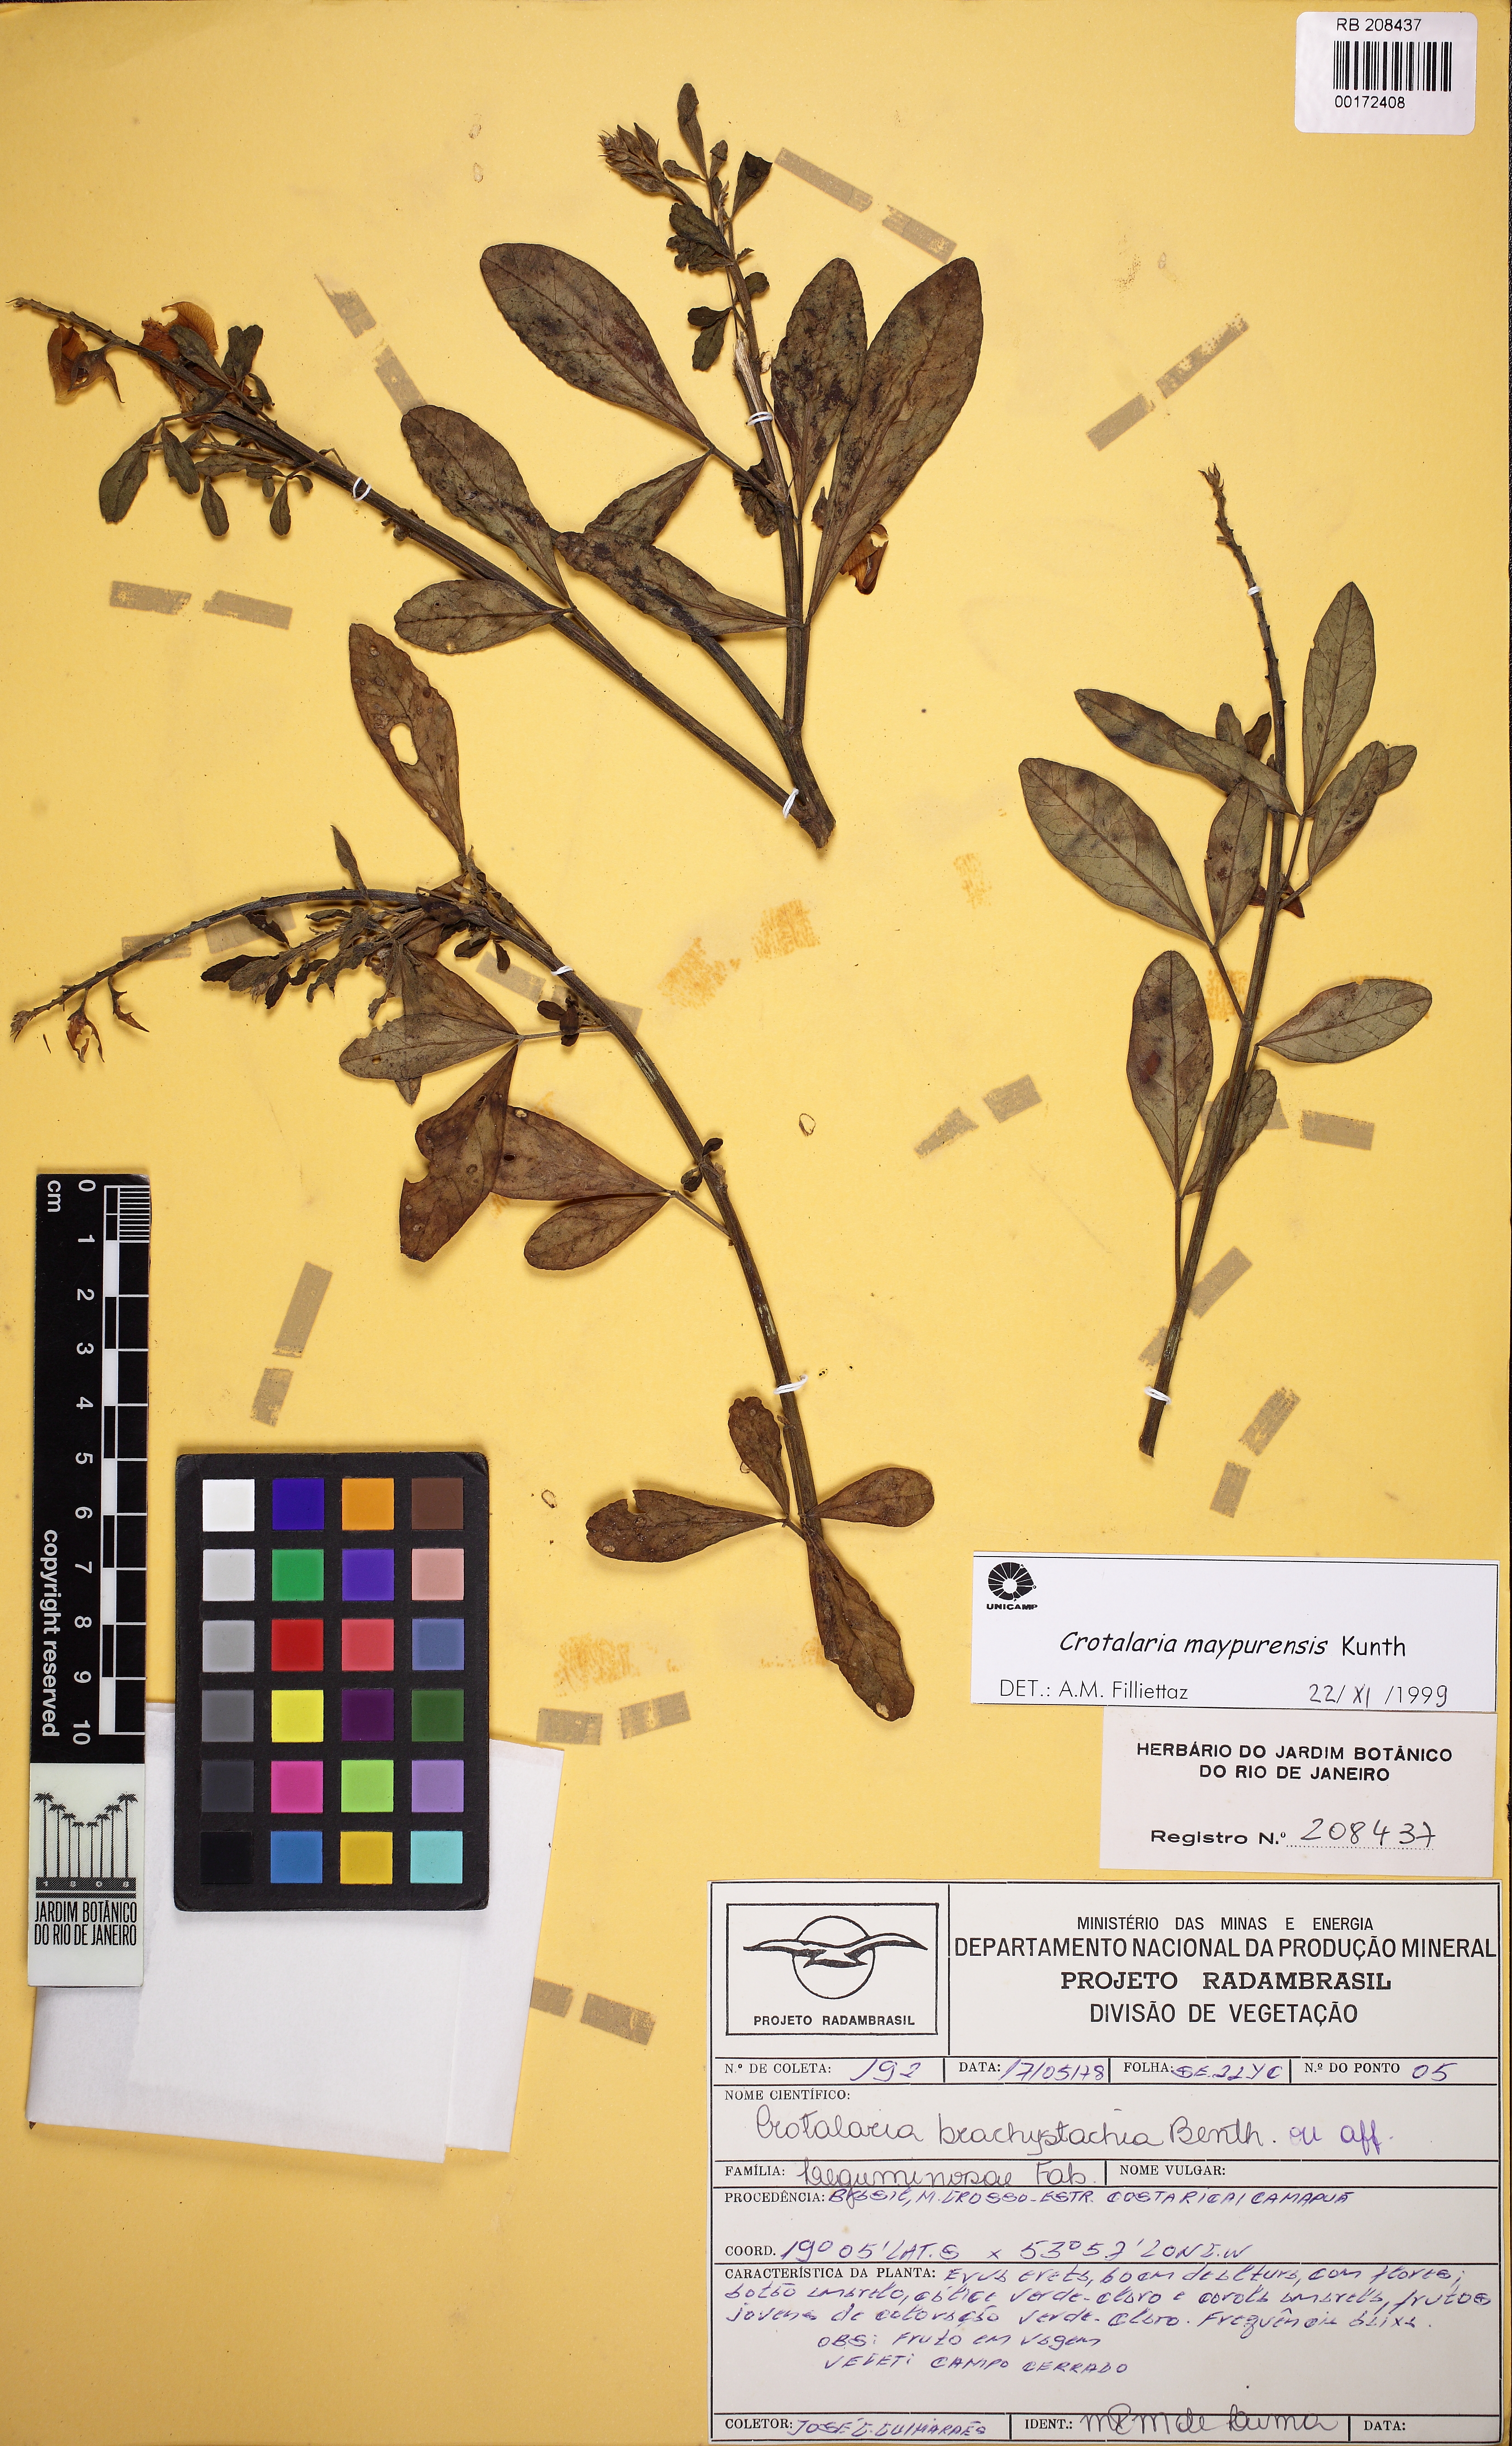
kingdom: Plantae
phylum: Tracheophyta
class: Magnoliopsida
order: Fabales
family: Fabaceae
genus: Crotalaria
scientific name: Crotalaria maypurensis
